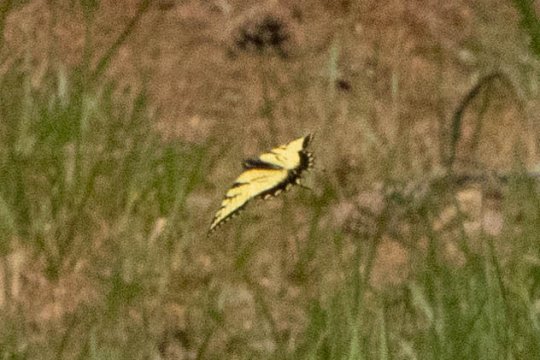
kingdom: Animalia
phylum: Arthropoda
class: Insecta
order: Lepidoptera
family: Papilionidae
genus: Pterourus
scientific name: Pterourus glaucus
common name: Eastern Tiger Swallowtail
